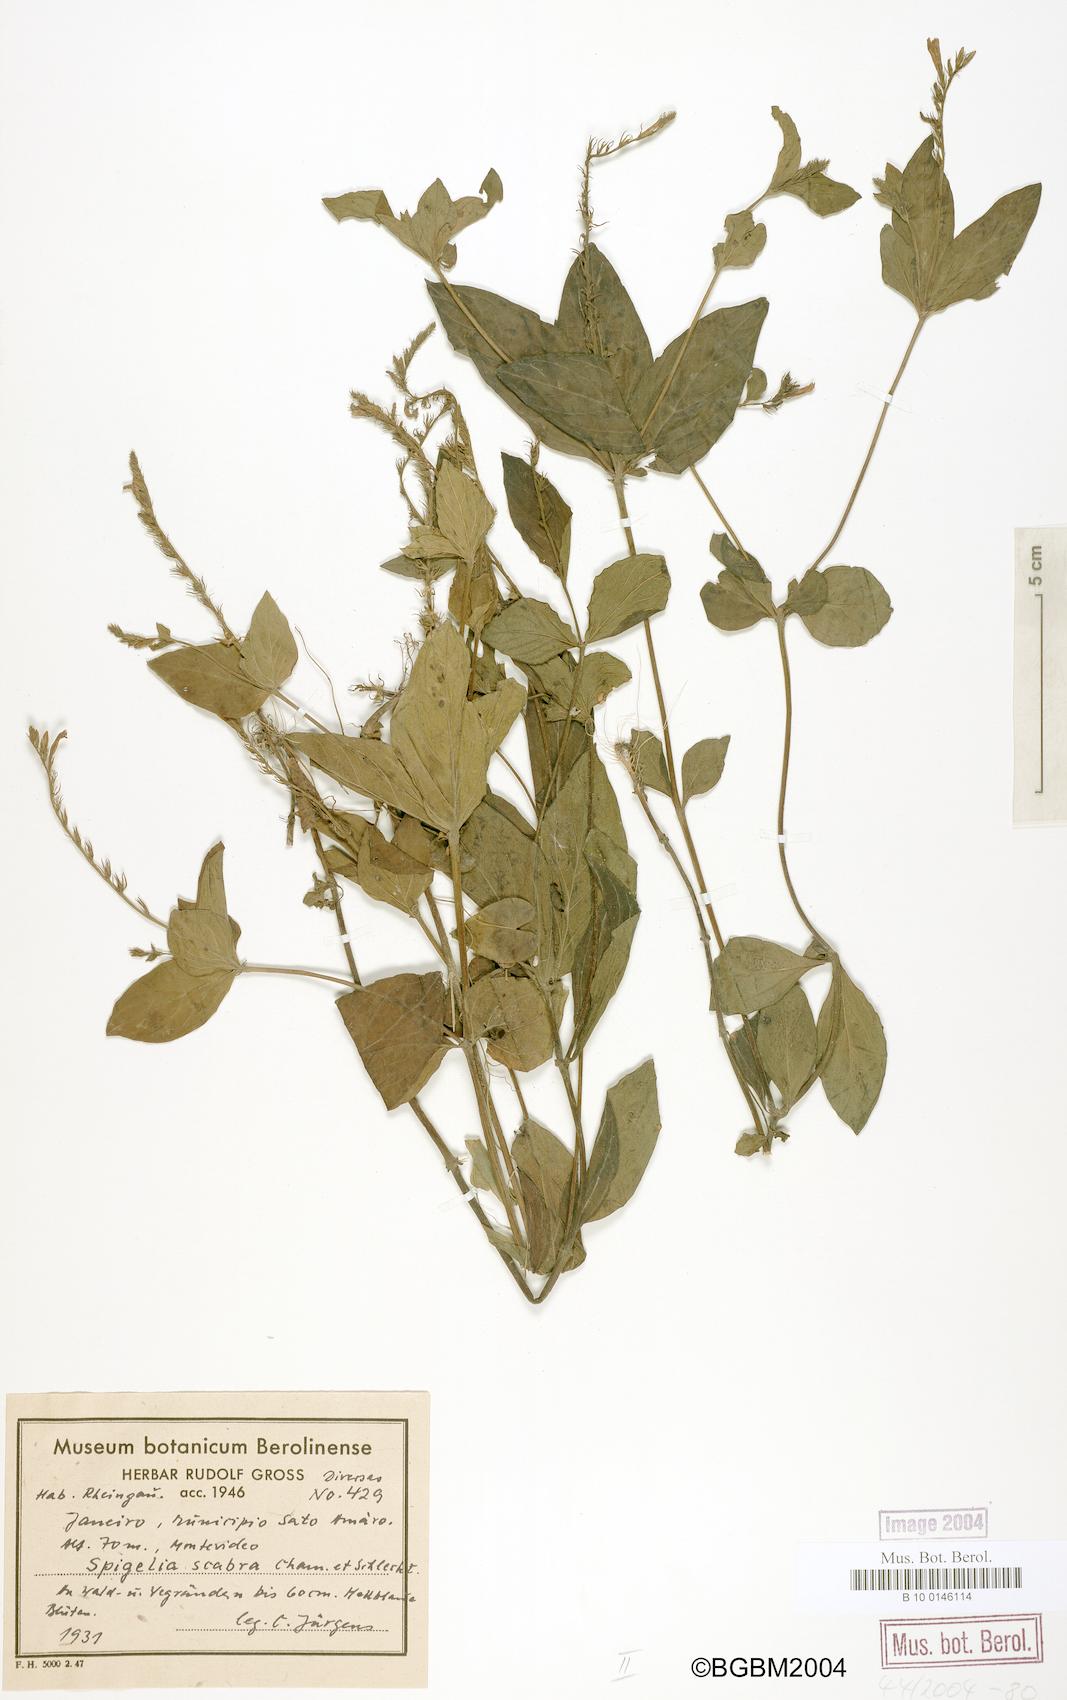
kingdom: Plantae
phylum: Tracheophyta
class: Magnoliopsida
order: Gentianales
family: Loganiaceae
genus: Spigelia
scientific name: Spigelia humboldtiana
